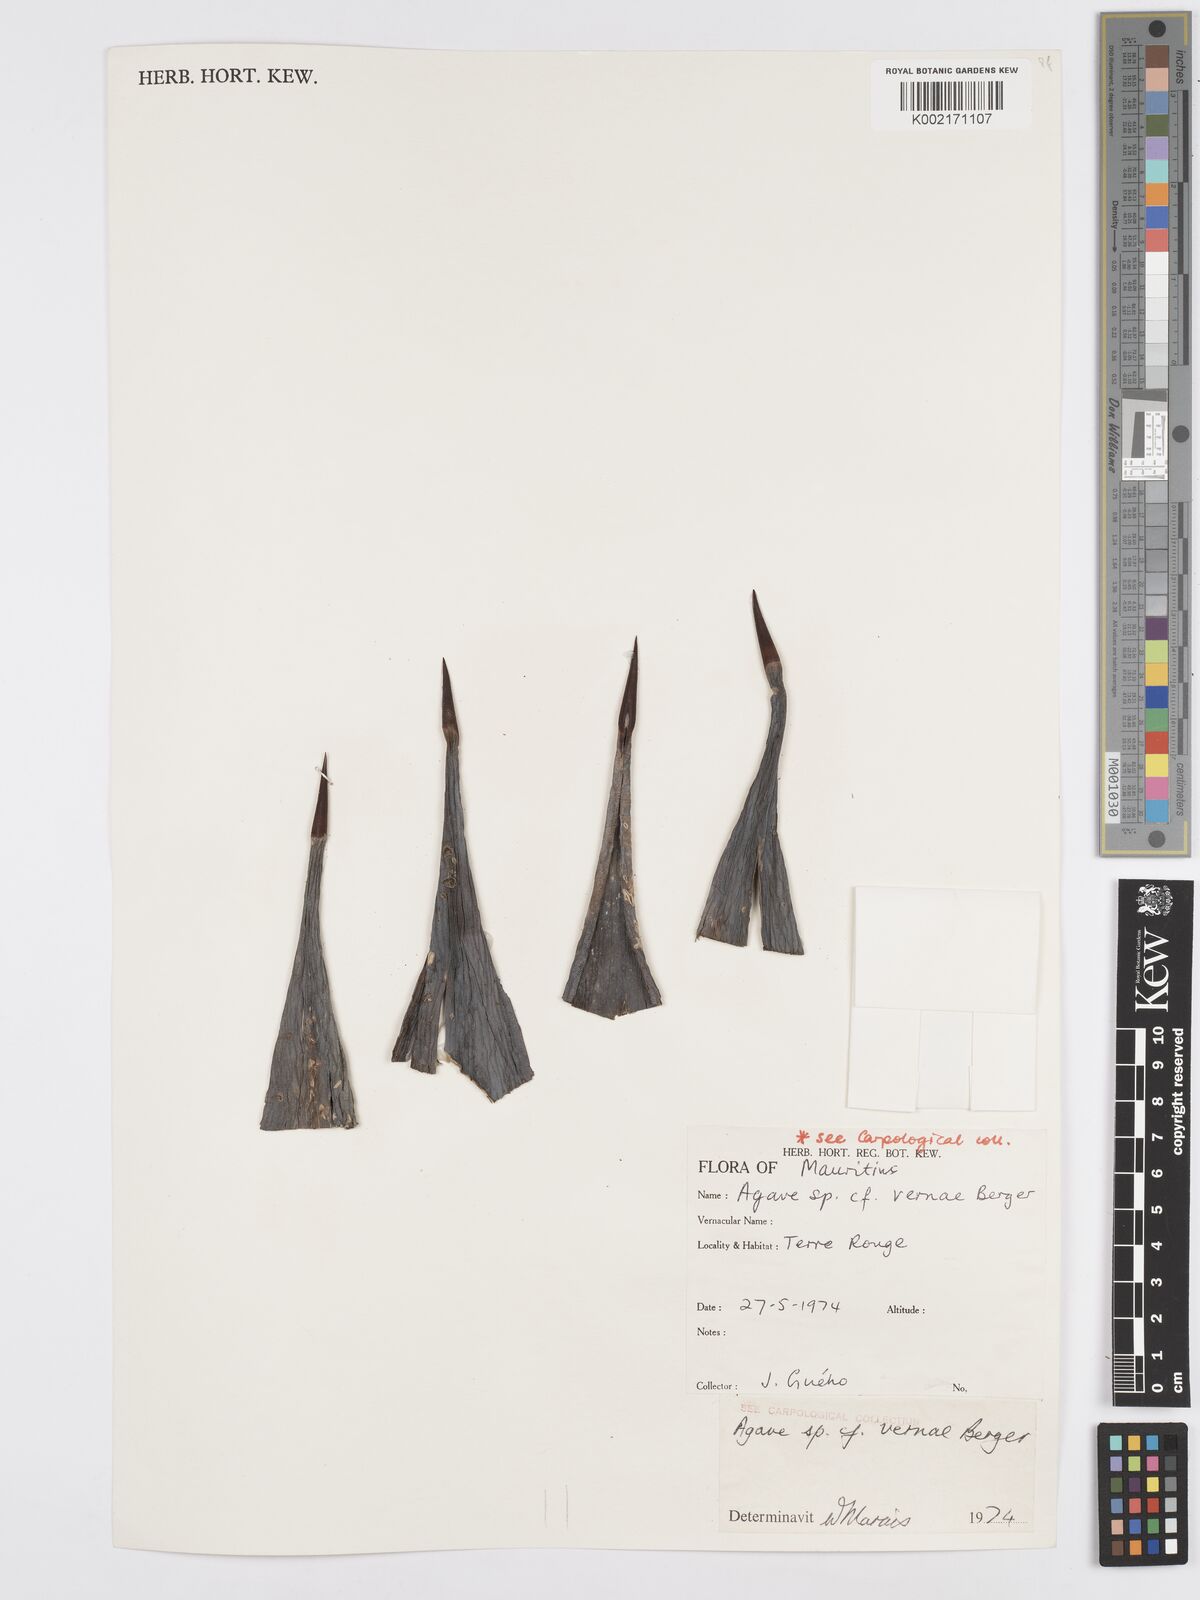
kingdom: Plantae
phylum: Tracheophyta
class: Liliopsida
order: Asparagales
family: Asparagaceae
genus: Agave
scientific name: Agave vera-cruz
